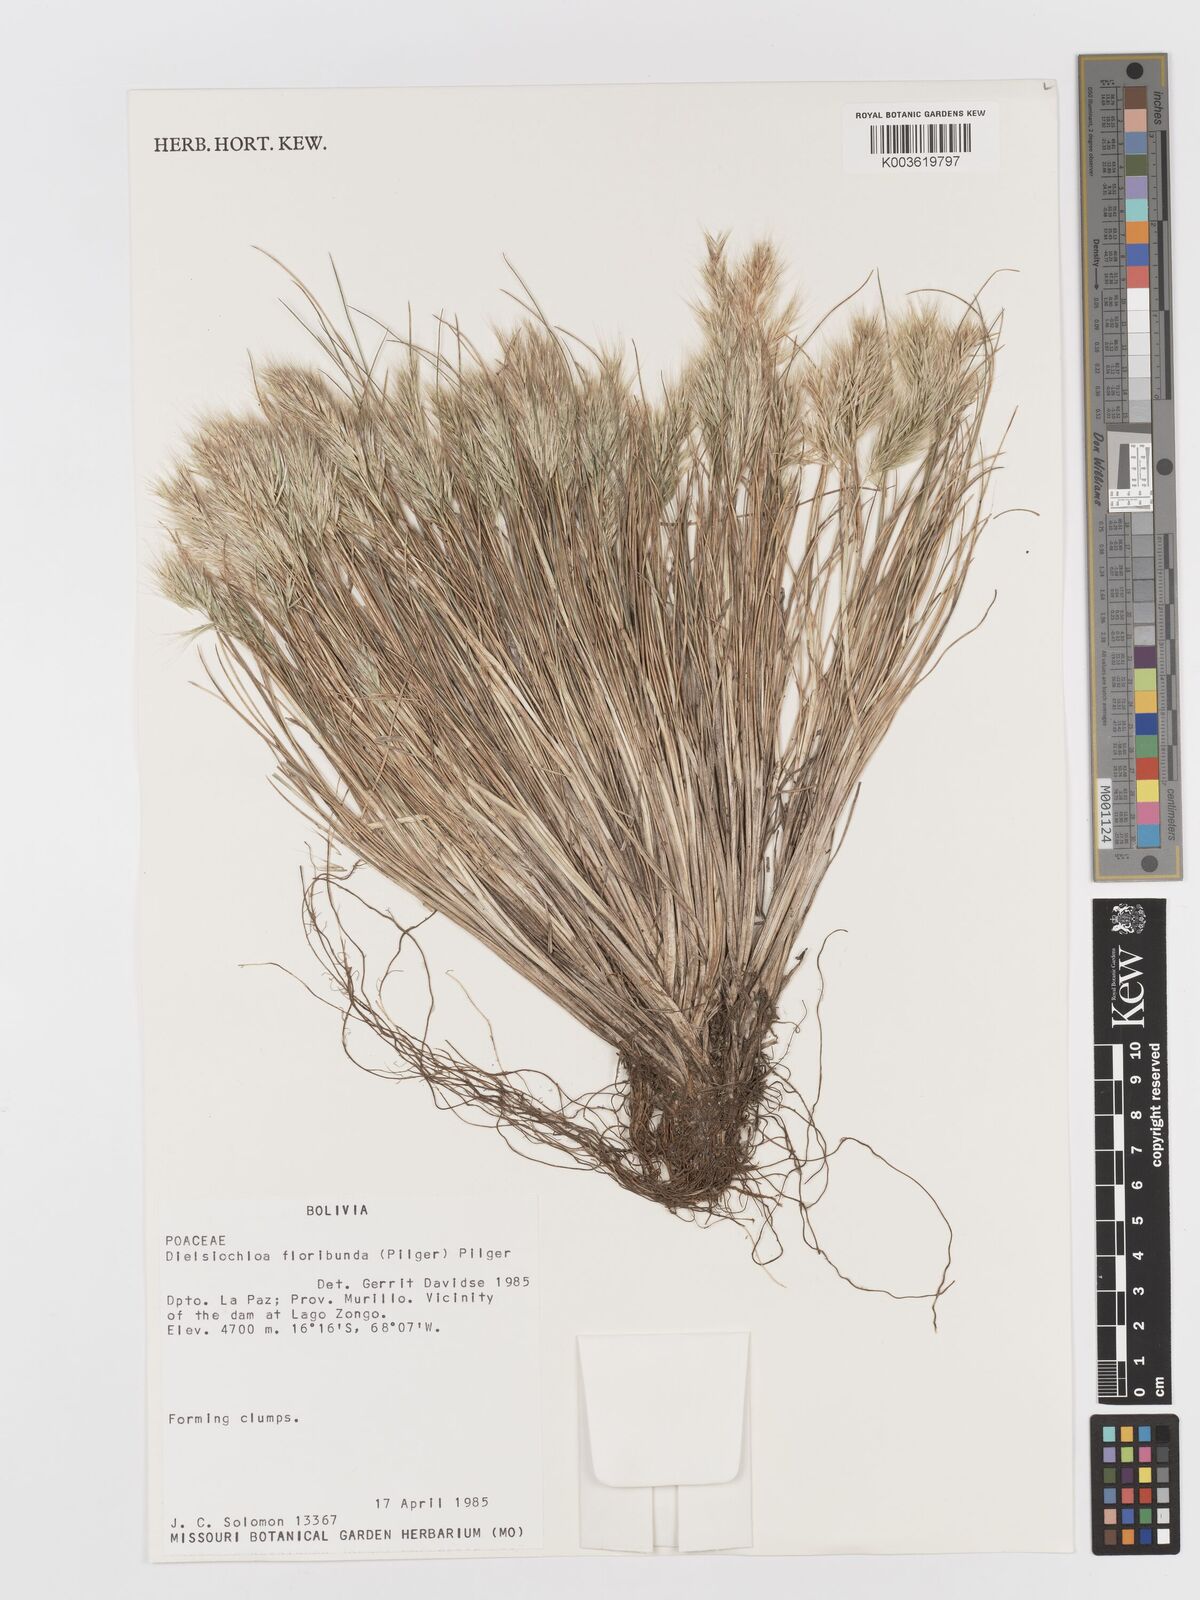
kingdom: Plantae
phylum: Tracheophyta
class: Liliopsida
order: Poales
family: Poaceae
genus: Festuca
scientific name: Festuca floribunda
